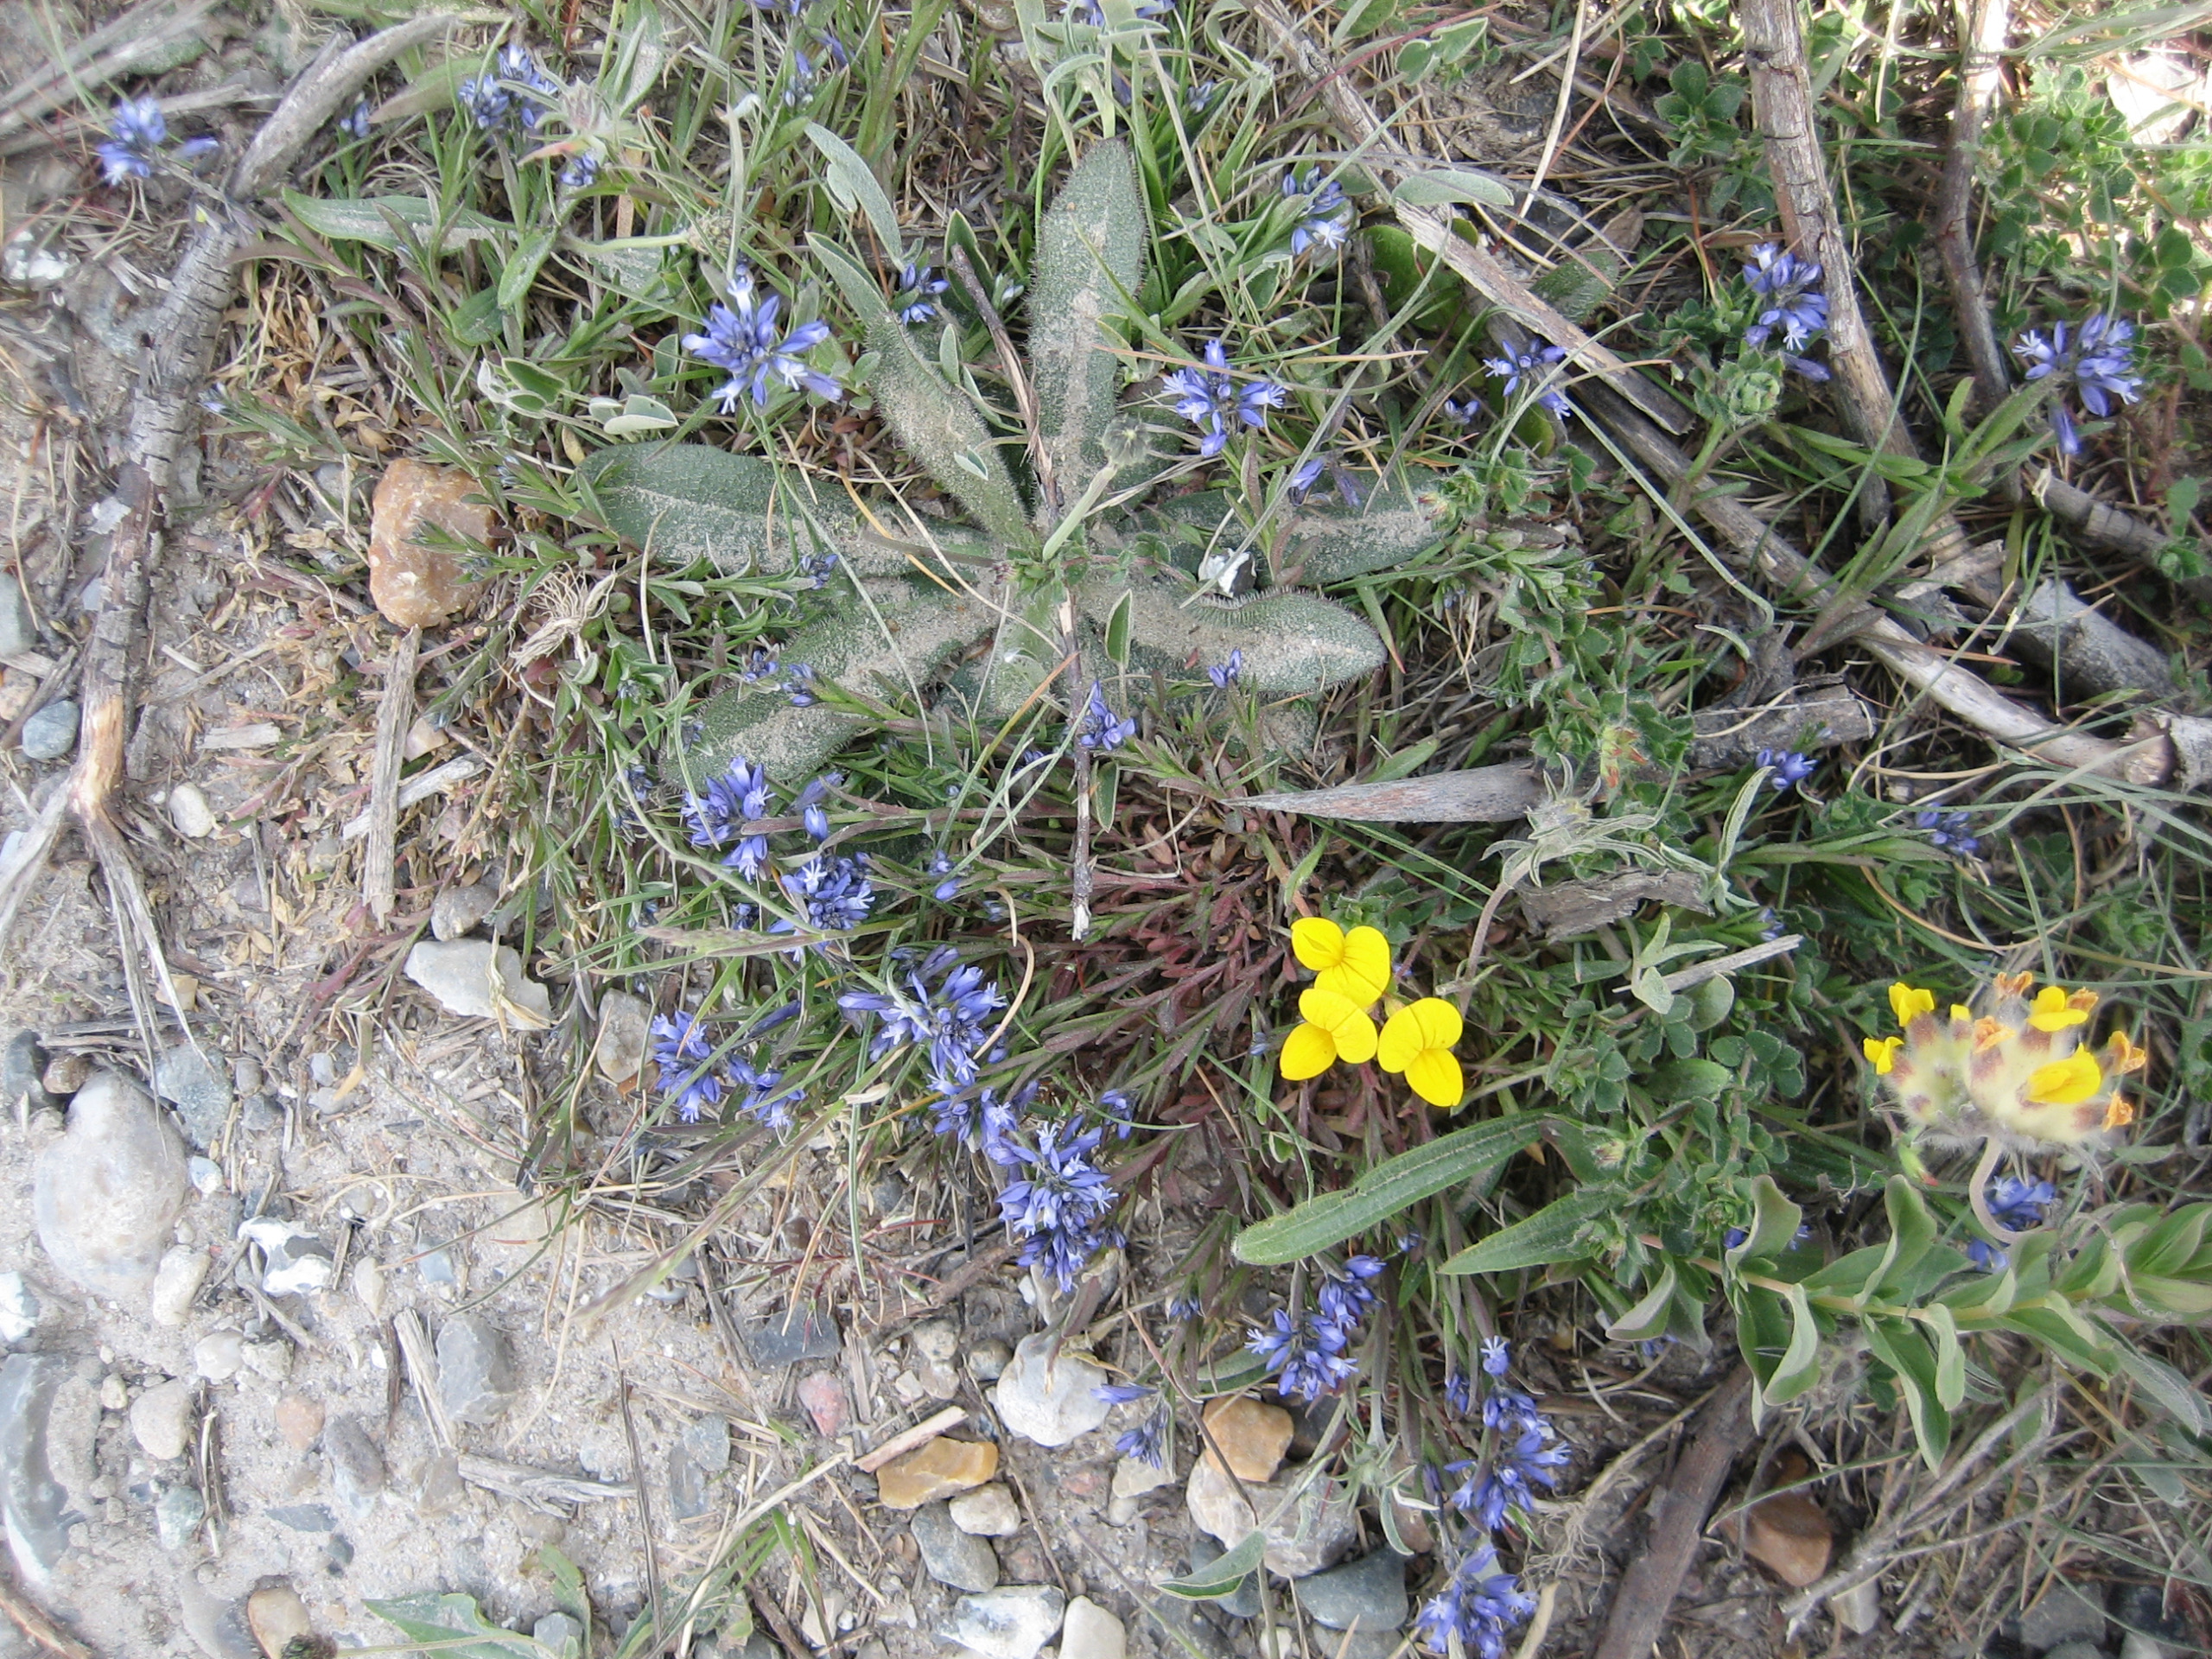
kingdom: Plantae
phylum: Tracheophyta
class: Magnoliopsida
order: Fabales
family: Polygalaceae
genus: Polygala
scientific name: Polygala vulgaris
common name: Almindelig mælkeurt
